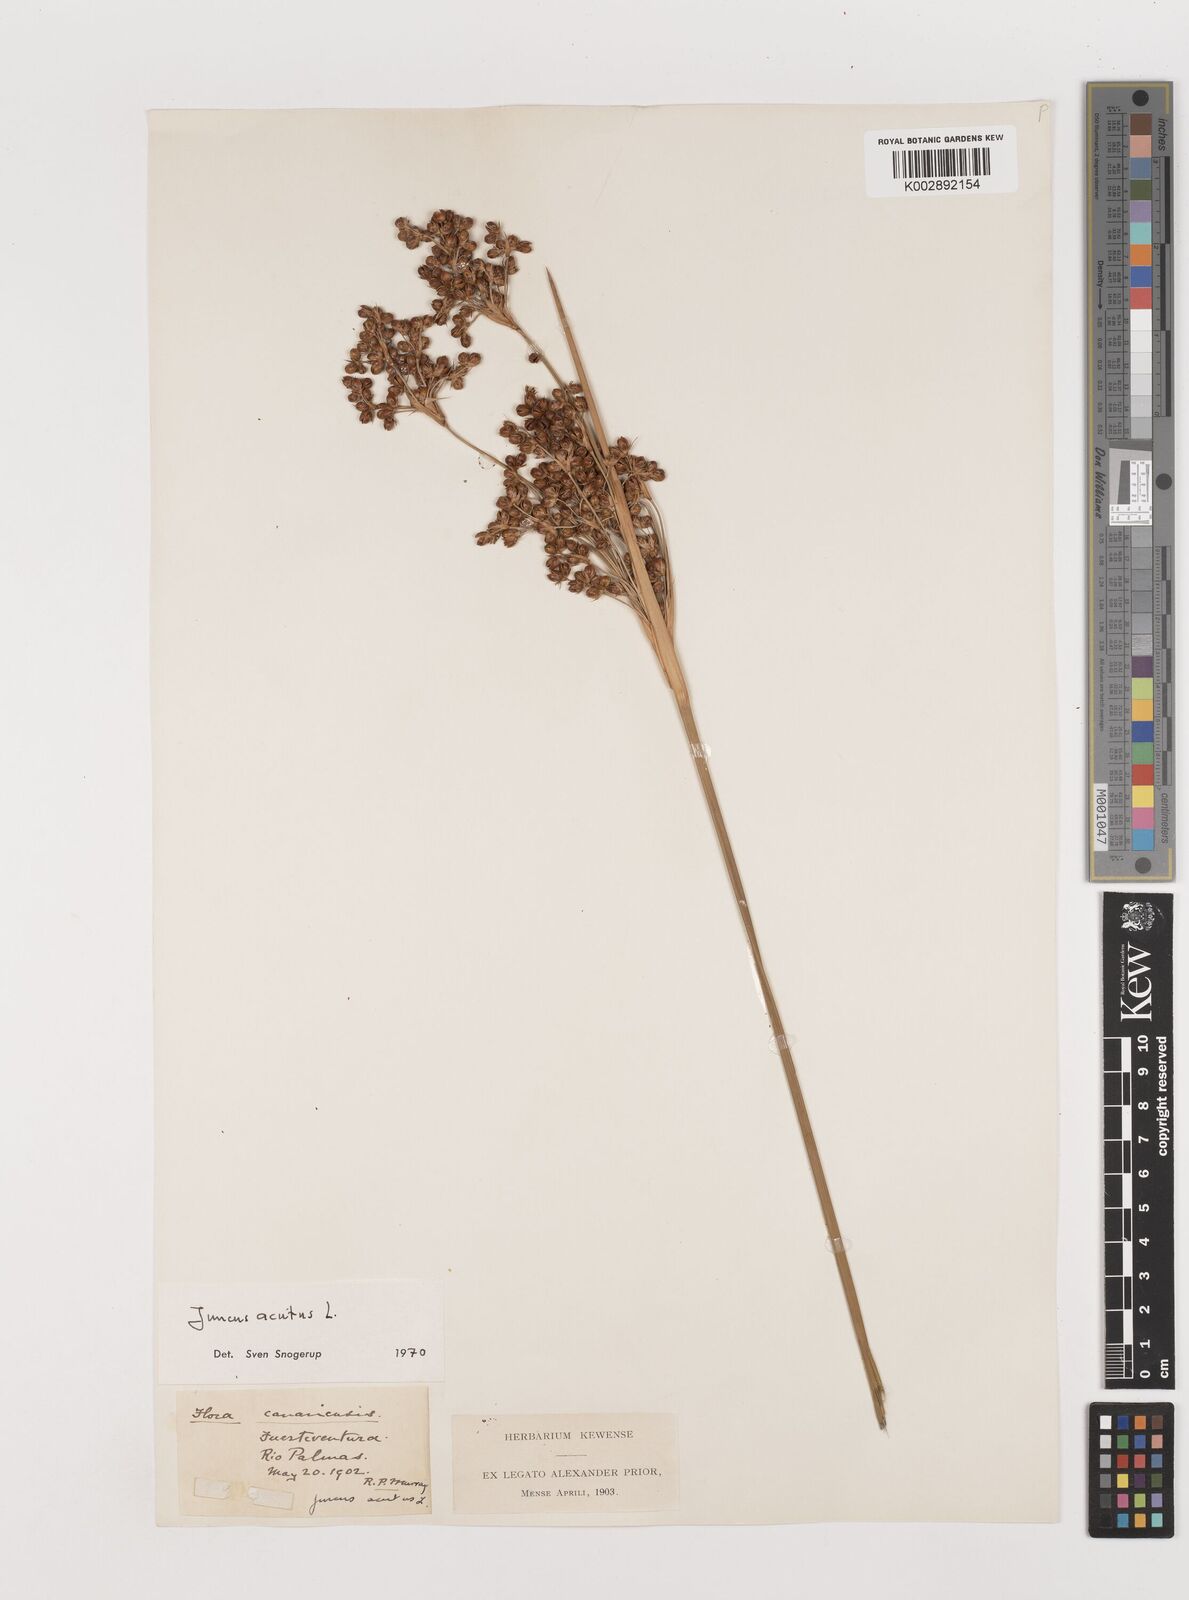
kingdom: Plantae
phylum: Tracheophyta
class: Liliopsida
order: Poales
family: Juncaceae
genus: Juncus
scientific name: Juncus acutus
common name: Sharp rush
